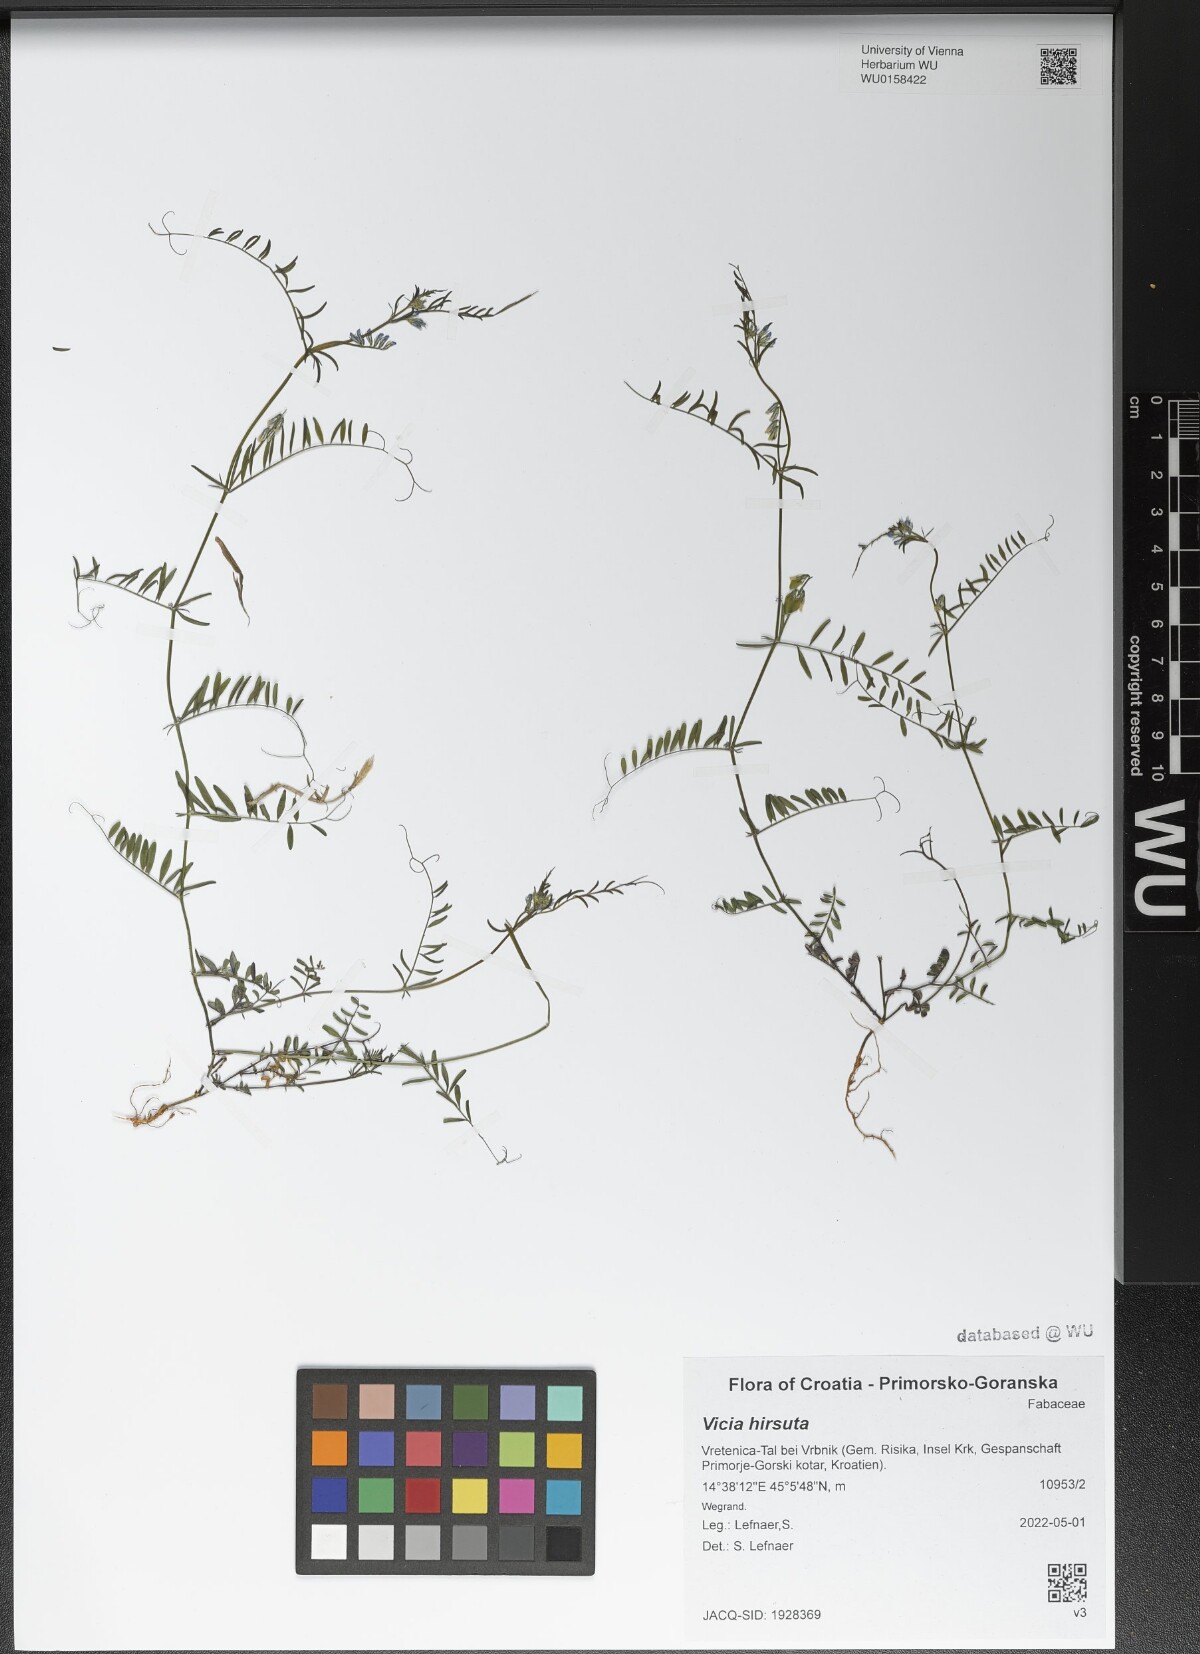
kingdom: Plantae
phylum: Tracheophyta
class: Magnoliopsida
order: Fabales
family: Fabaceae
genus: Vicia
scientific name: Vicia hirsuta
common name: Tiny vetch
